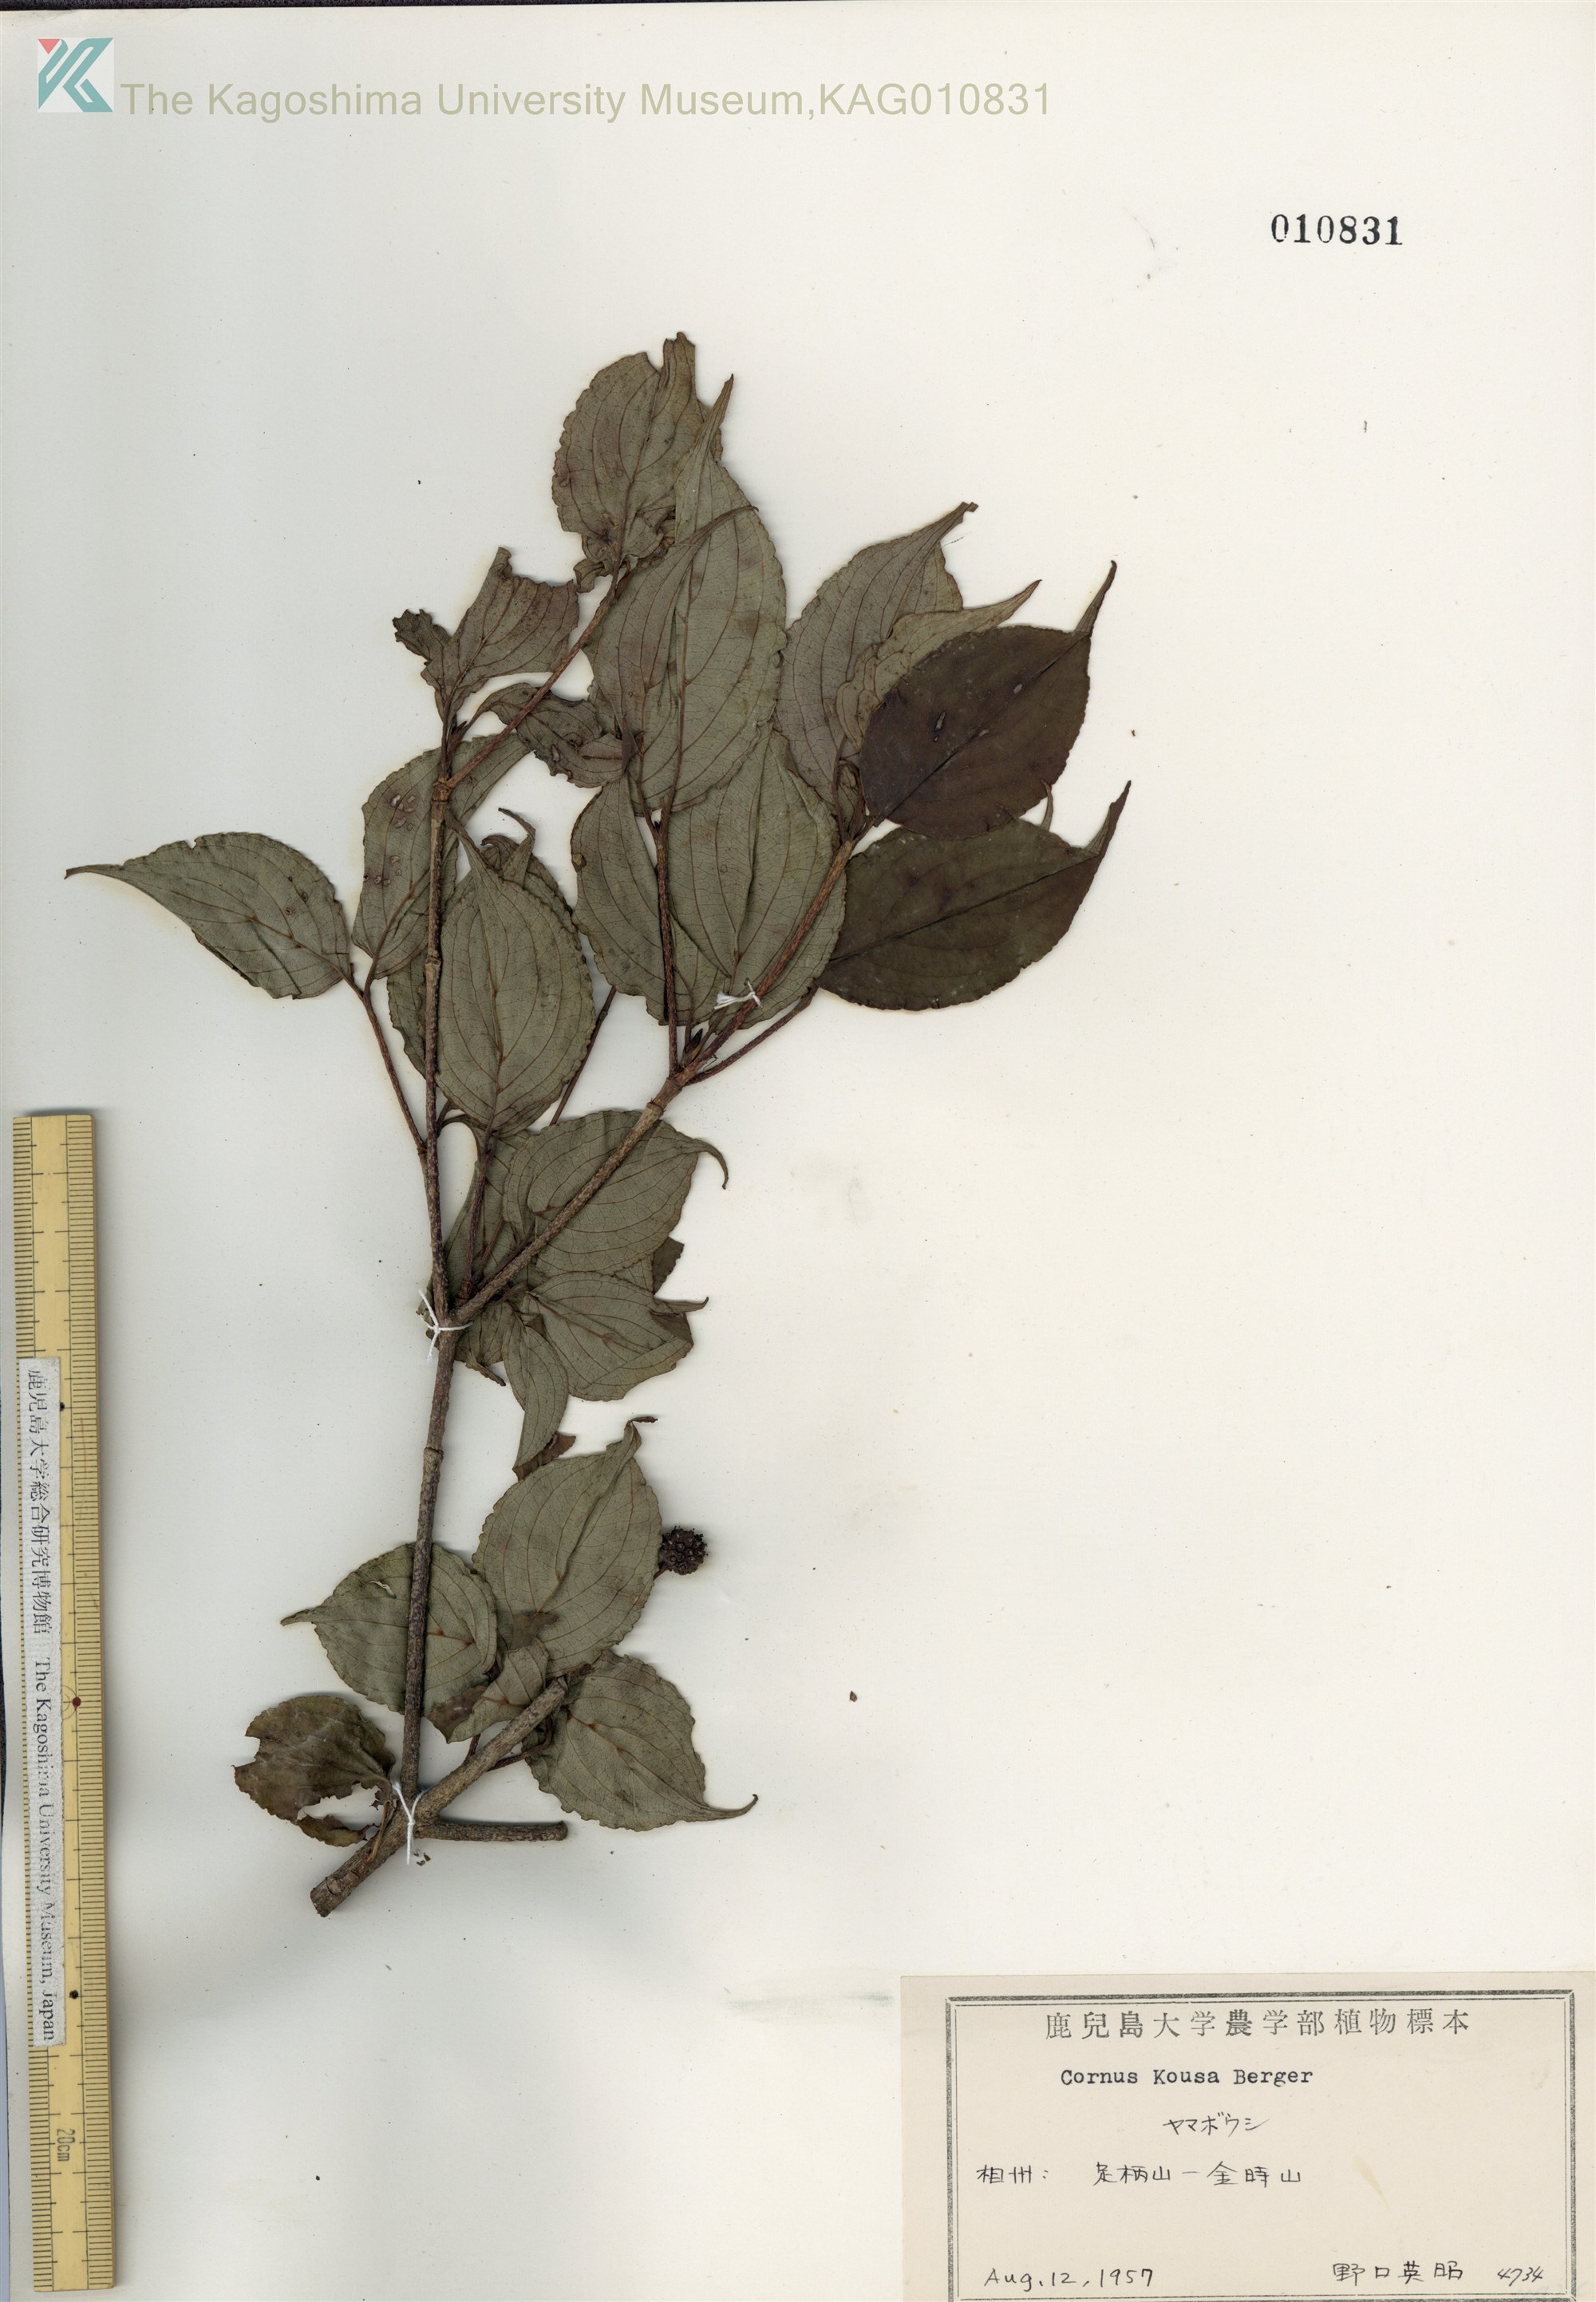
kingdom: Plantae
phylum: Tracheophyta
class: Magnoliopsida
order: Cornales
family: Cornaceae
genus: Cornus
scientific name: Cornus kousa
